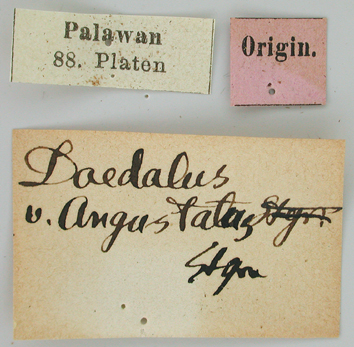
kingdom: Animalia
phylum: Arthropoda
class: Insecta
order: Lepidoptera
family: Papilionidae
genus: Papilio
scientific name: Papilio daedalus
